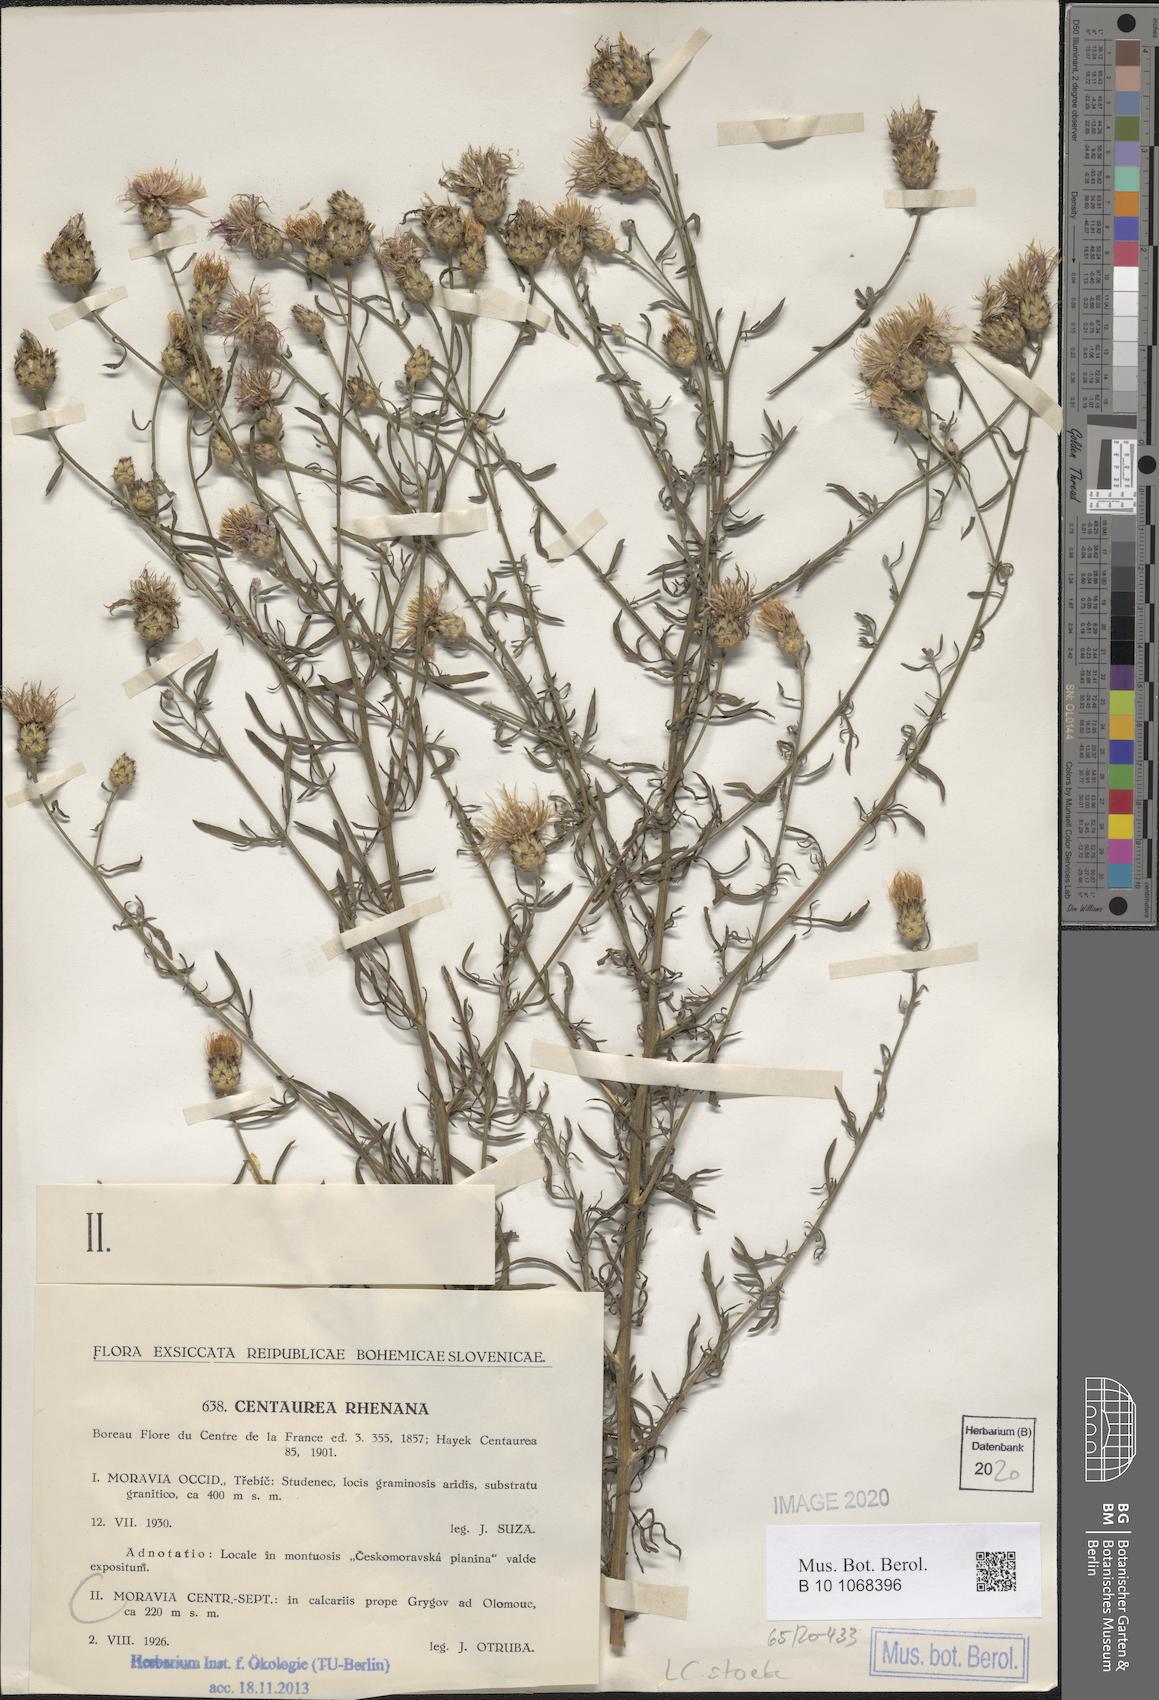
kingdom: Plantae
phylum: Tracheophyta
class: Magnoliopsida
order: Asterales
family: Asteraceae
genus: Centaurea
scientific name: Centaurea stoebe
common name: Spotted knapweed
